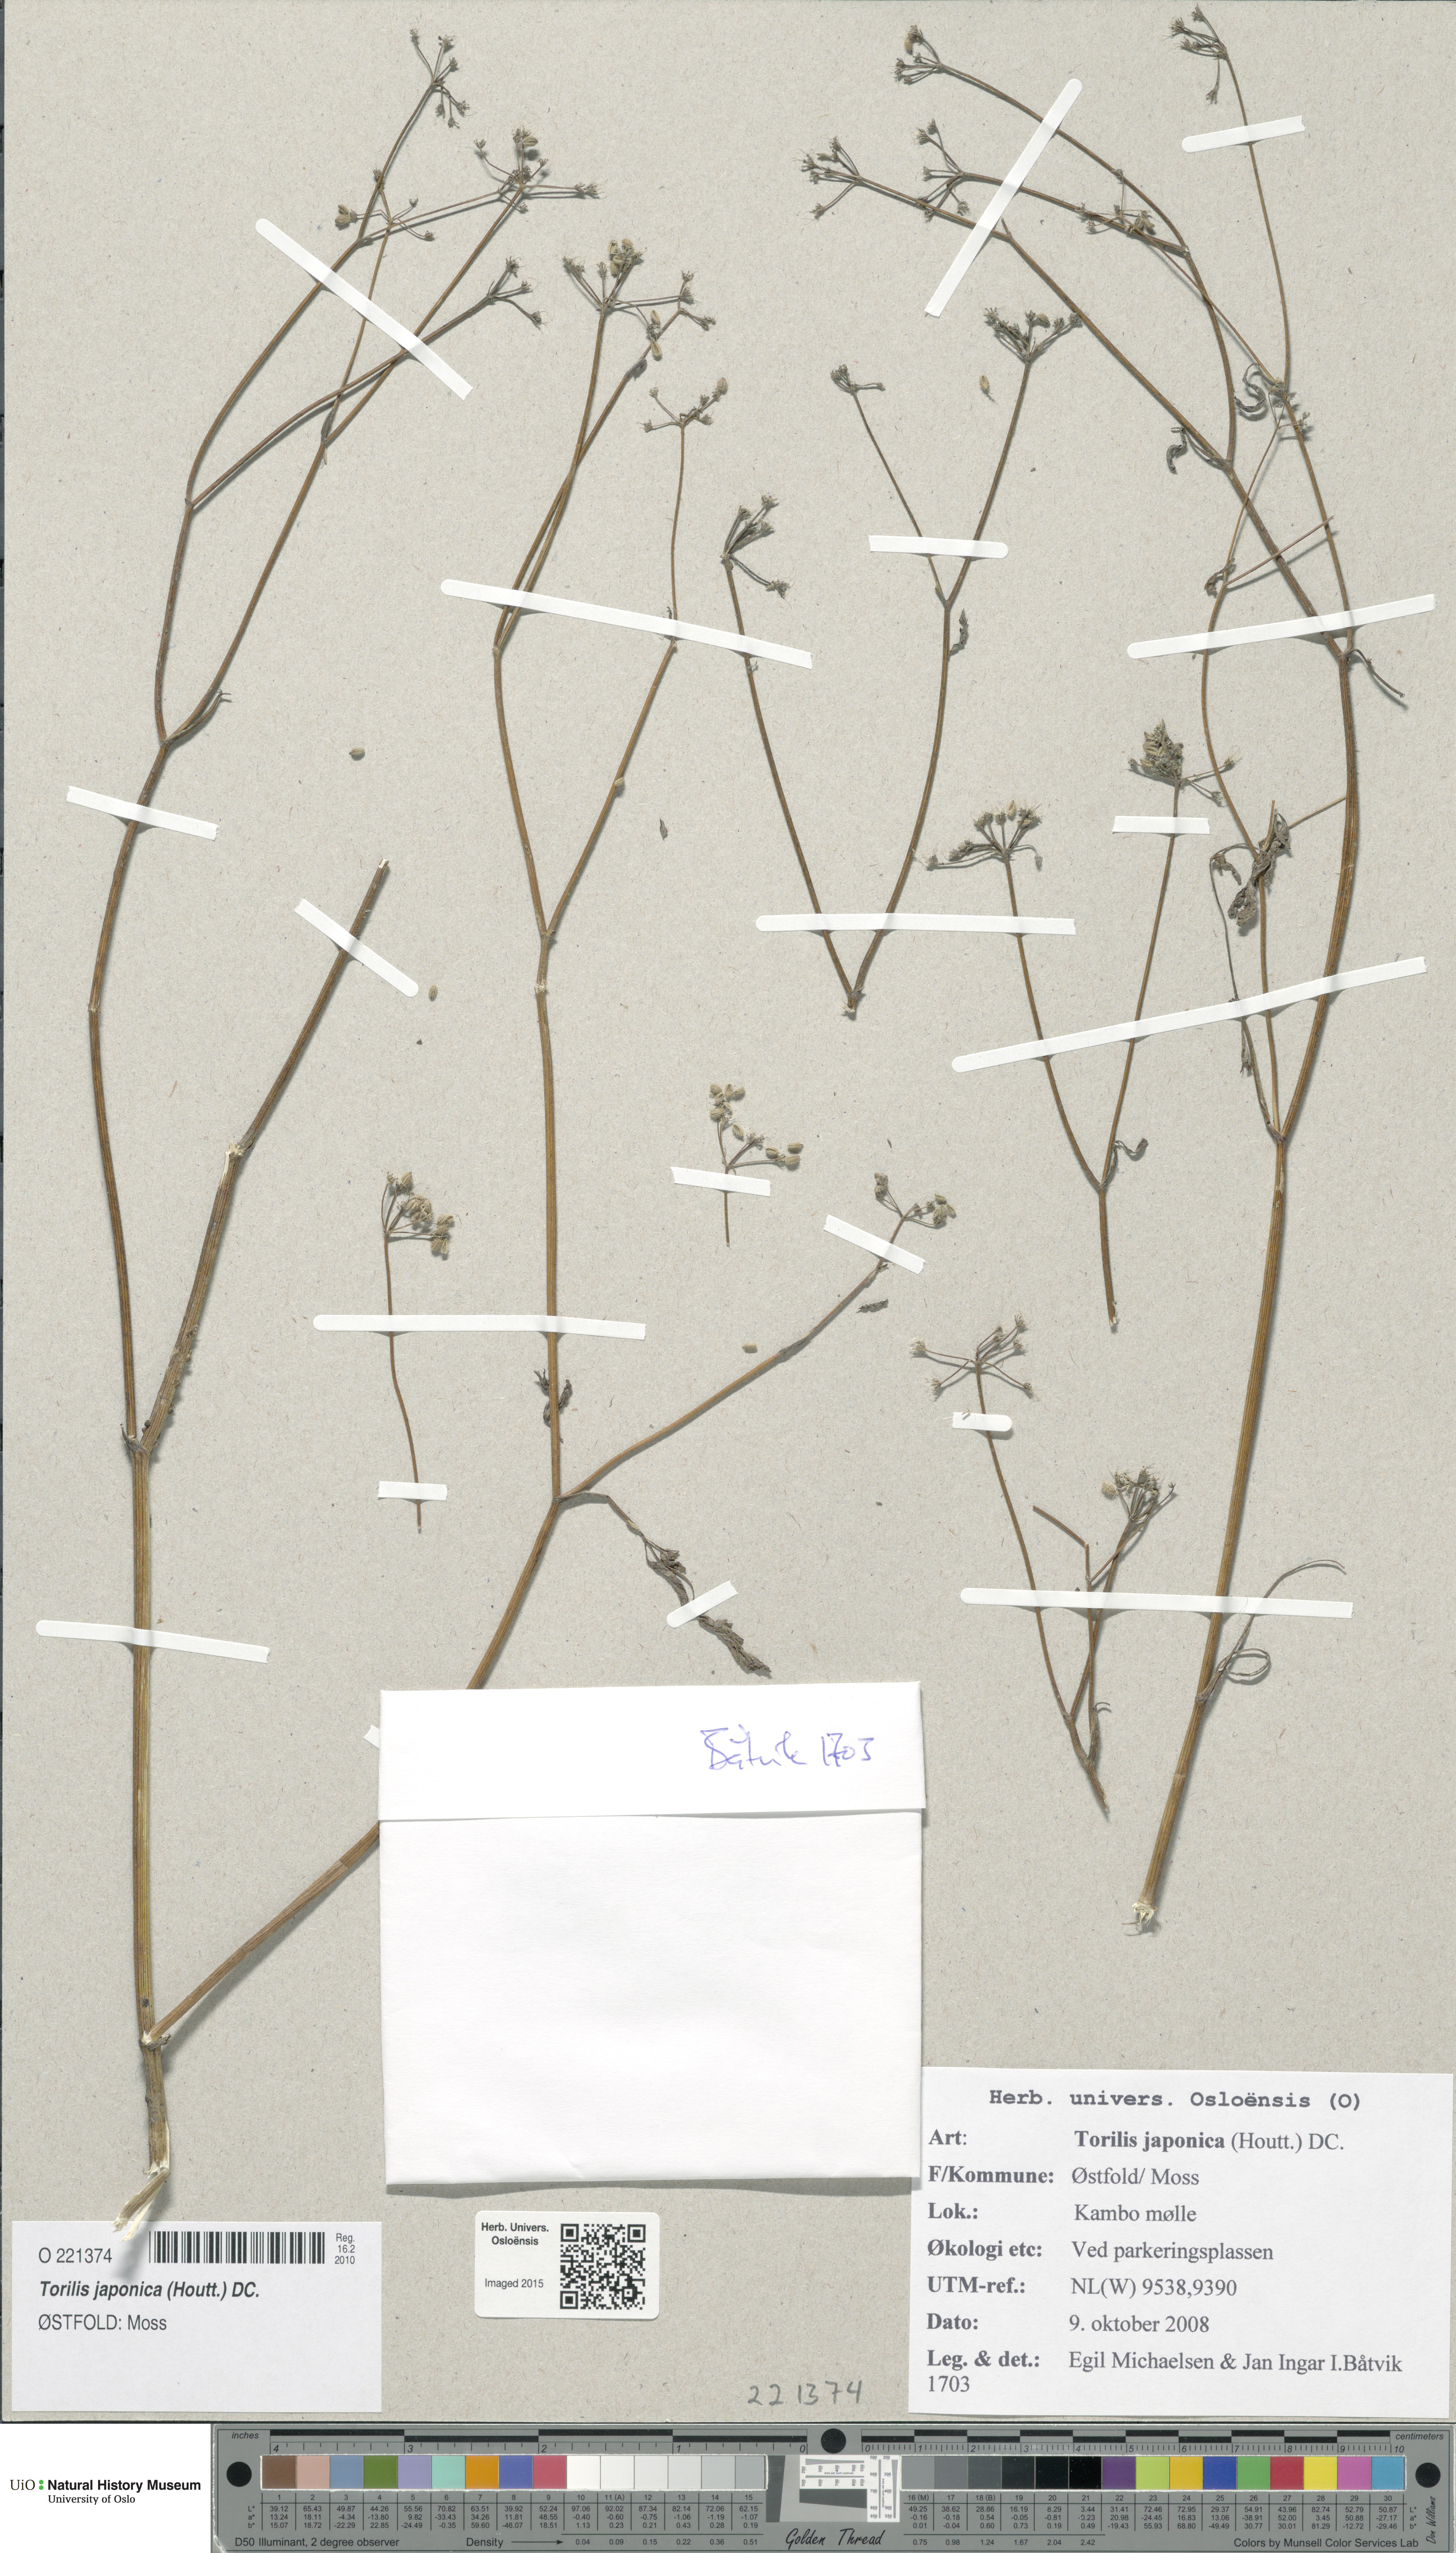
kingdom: Plantae
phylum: Tracheophyta
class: Magnoliopsida
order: Apiales
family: Apiaceae
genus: Torilis
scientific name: Torilis japonica
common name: Upright hedge-parsley
